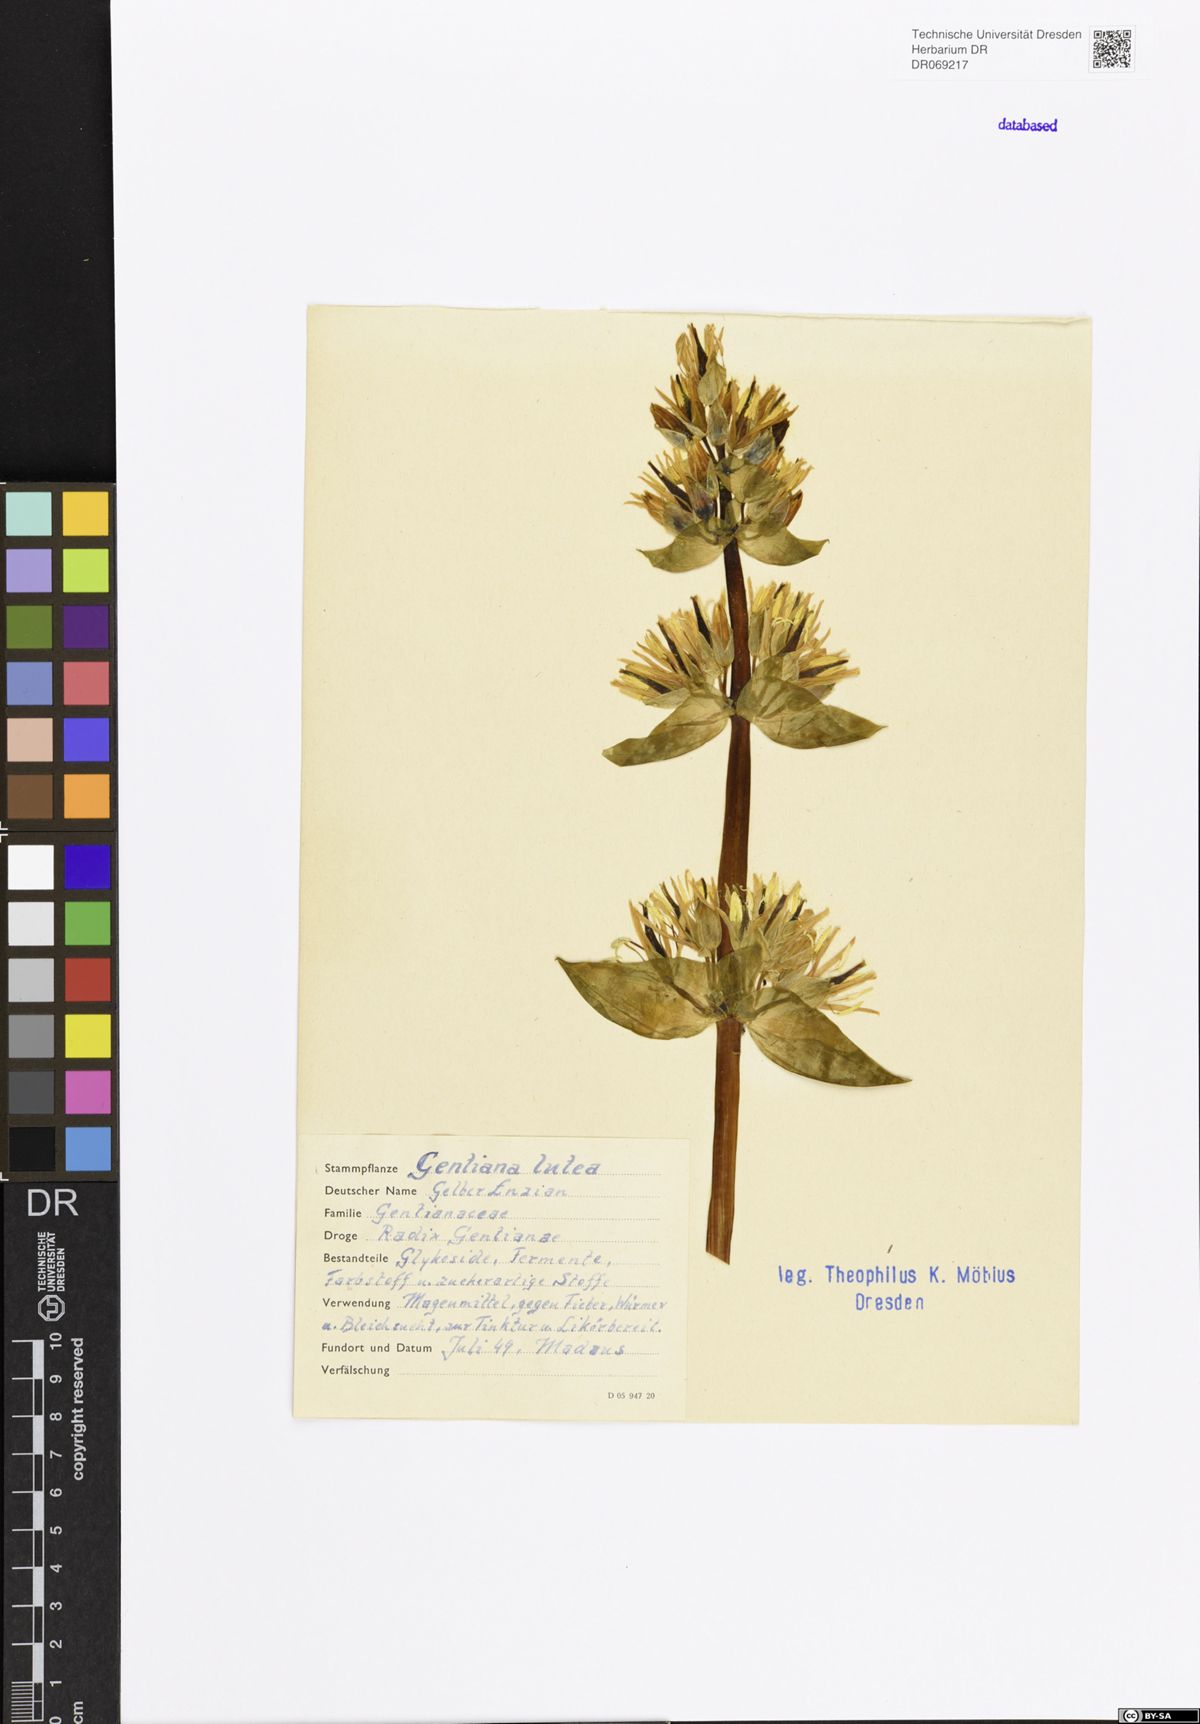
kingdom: Plantae
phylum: Tracheophyta
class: Magnoliopsida
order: Gentianales
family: Gentianaceae
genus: Gentiana
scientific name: Gentiana lutea
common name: Great yellow gentian
